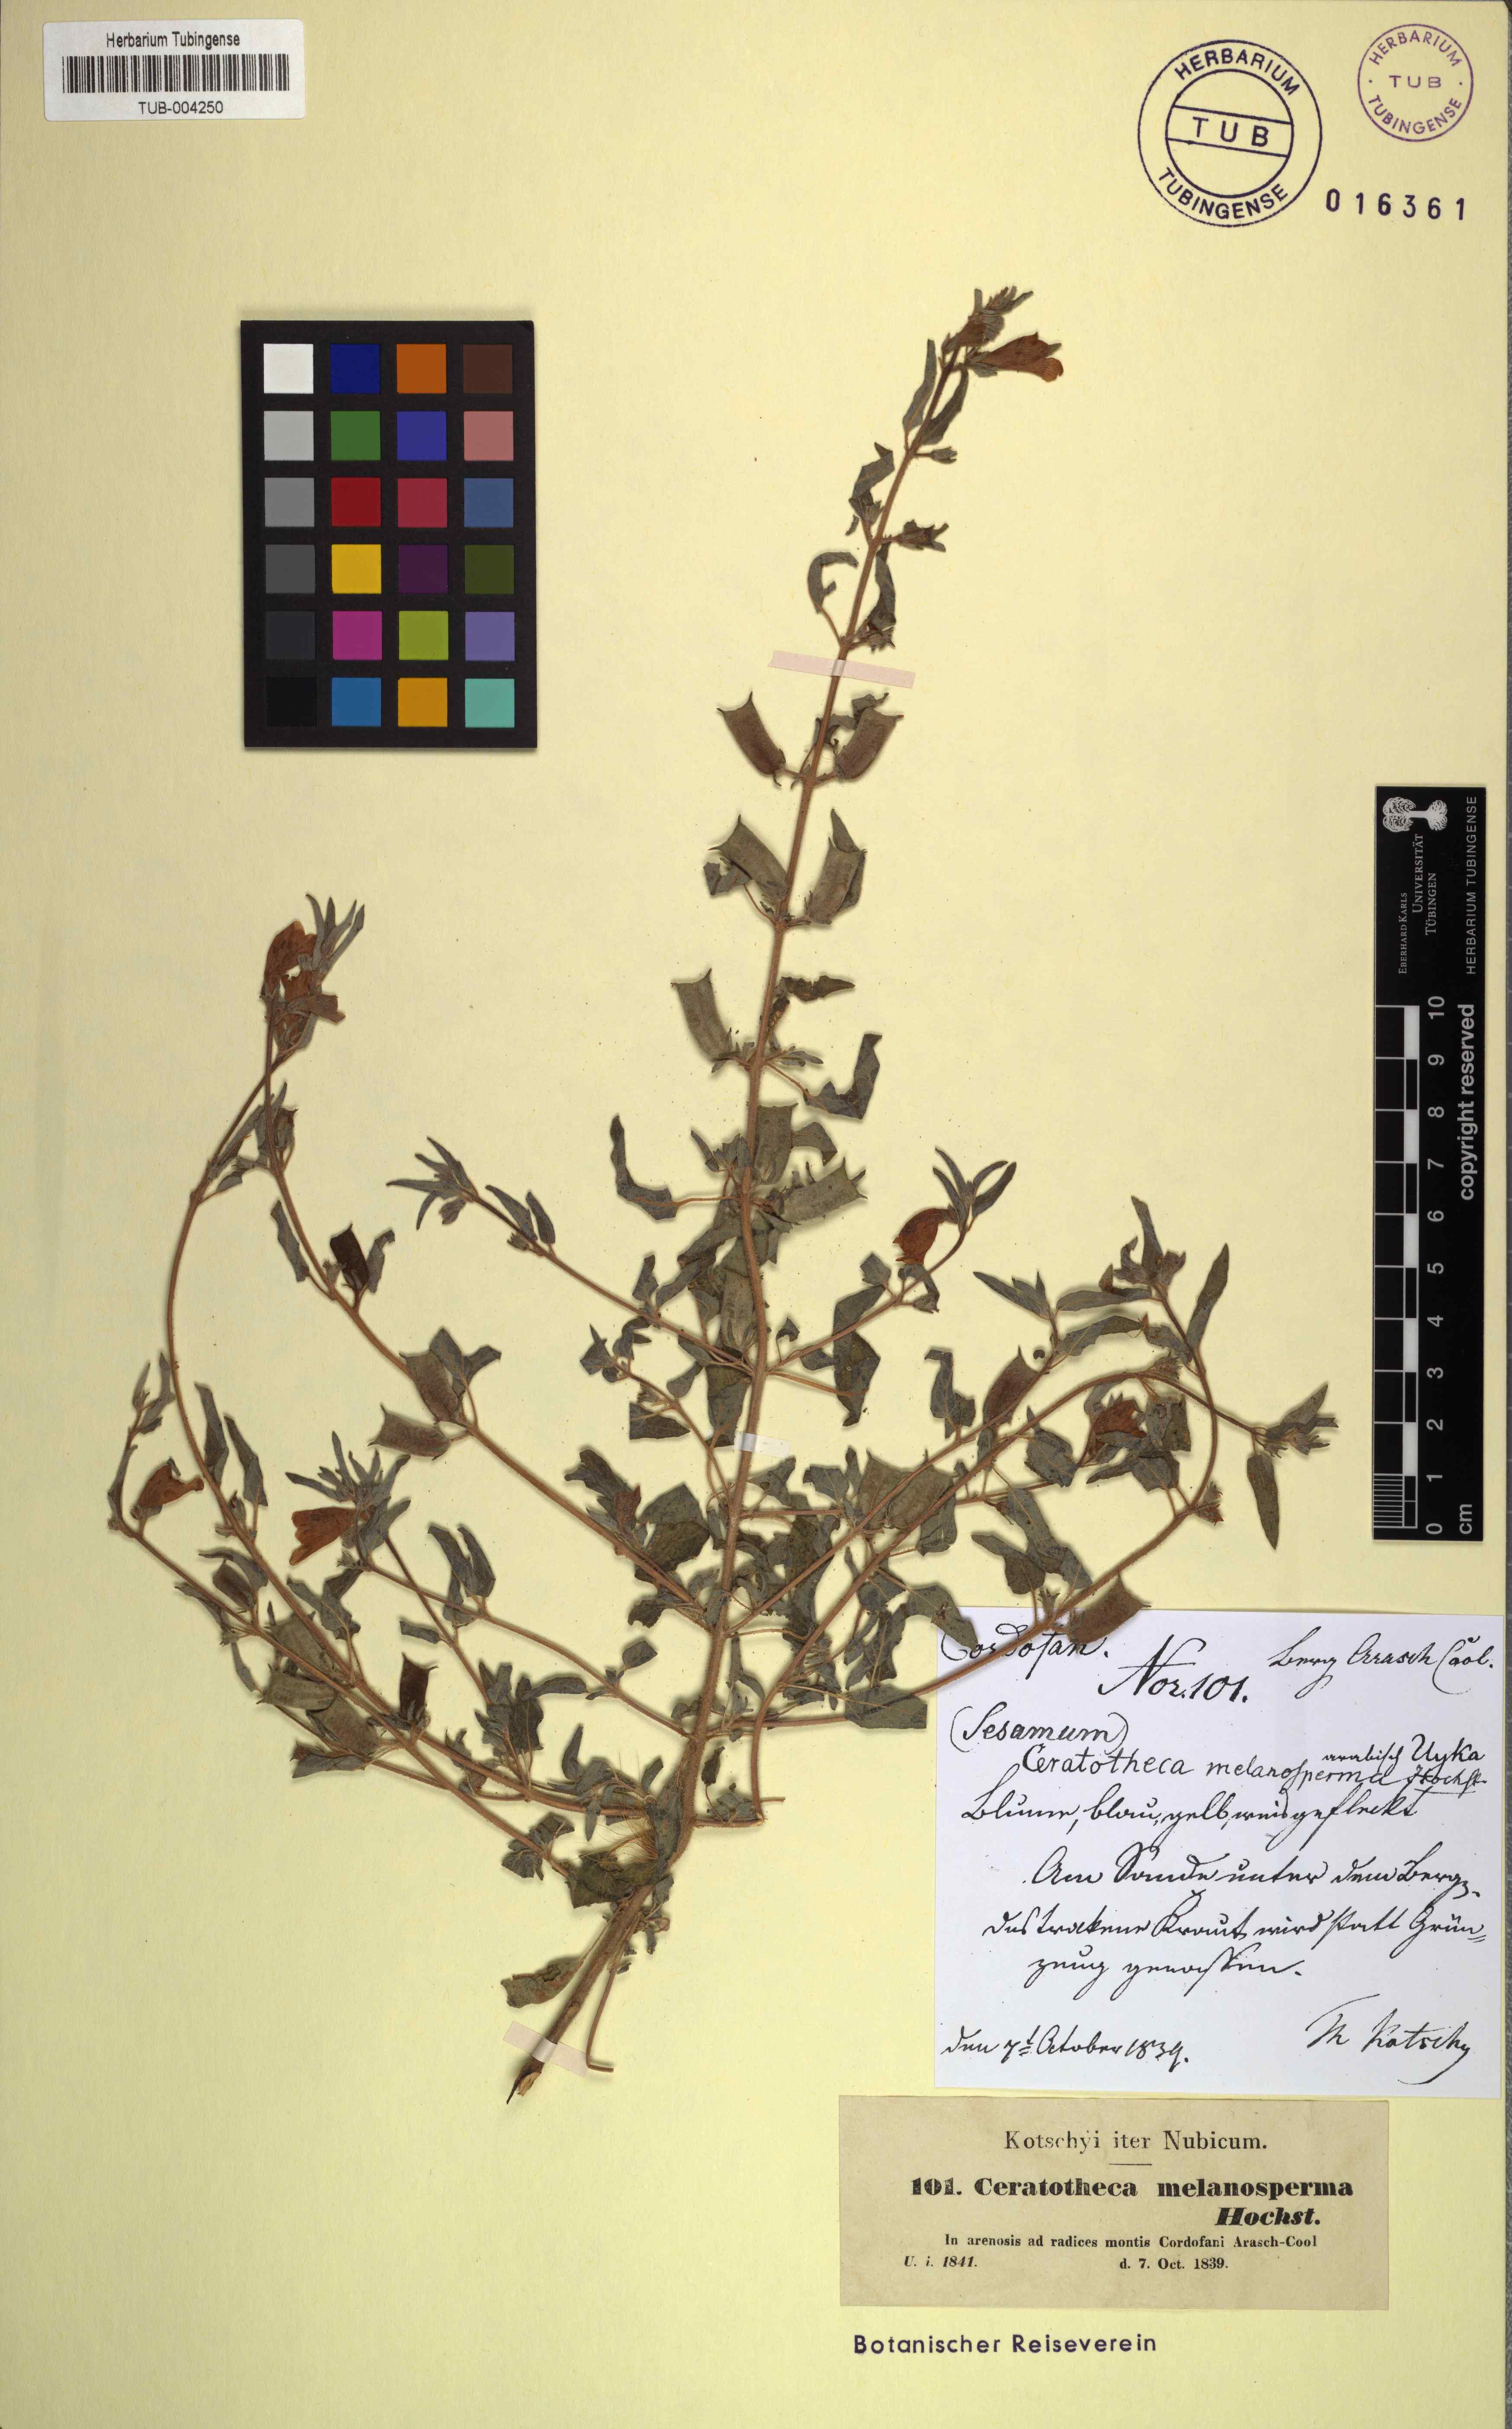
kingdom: Plantae
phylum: Tracheophyta
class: Magnoliopsida
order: Lamiales
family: Pedaliaceae
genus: Sesamum
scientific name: Sesamum sesamoides
